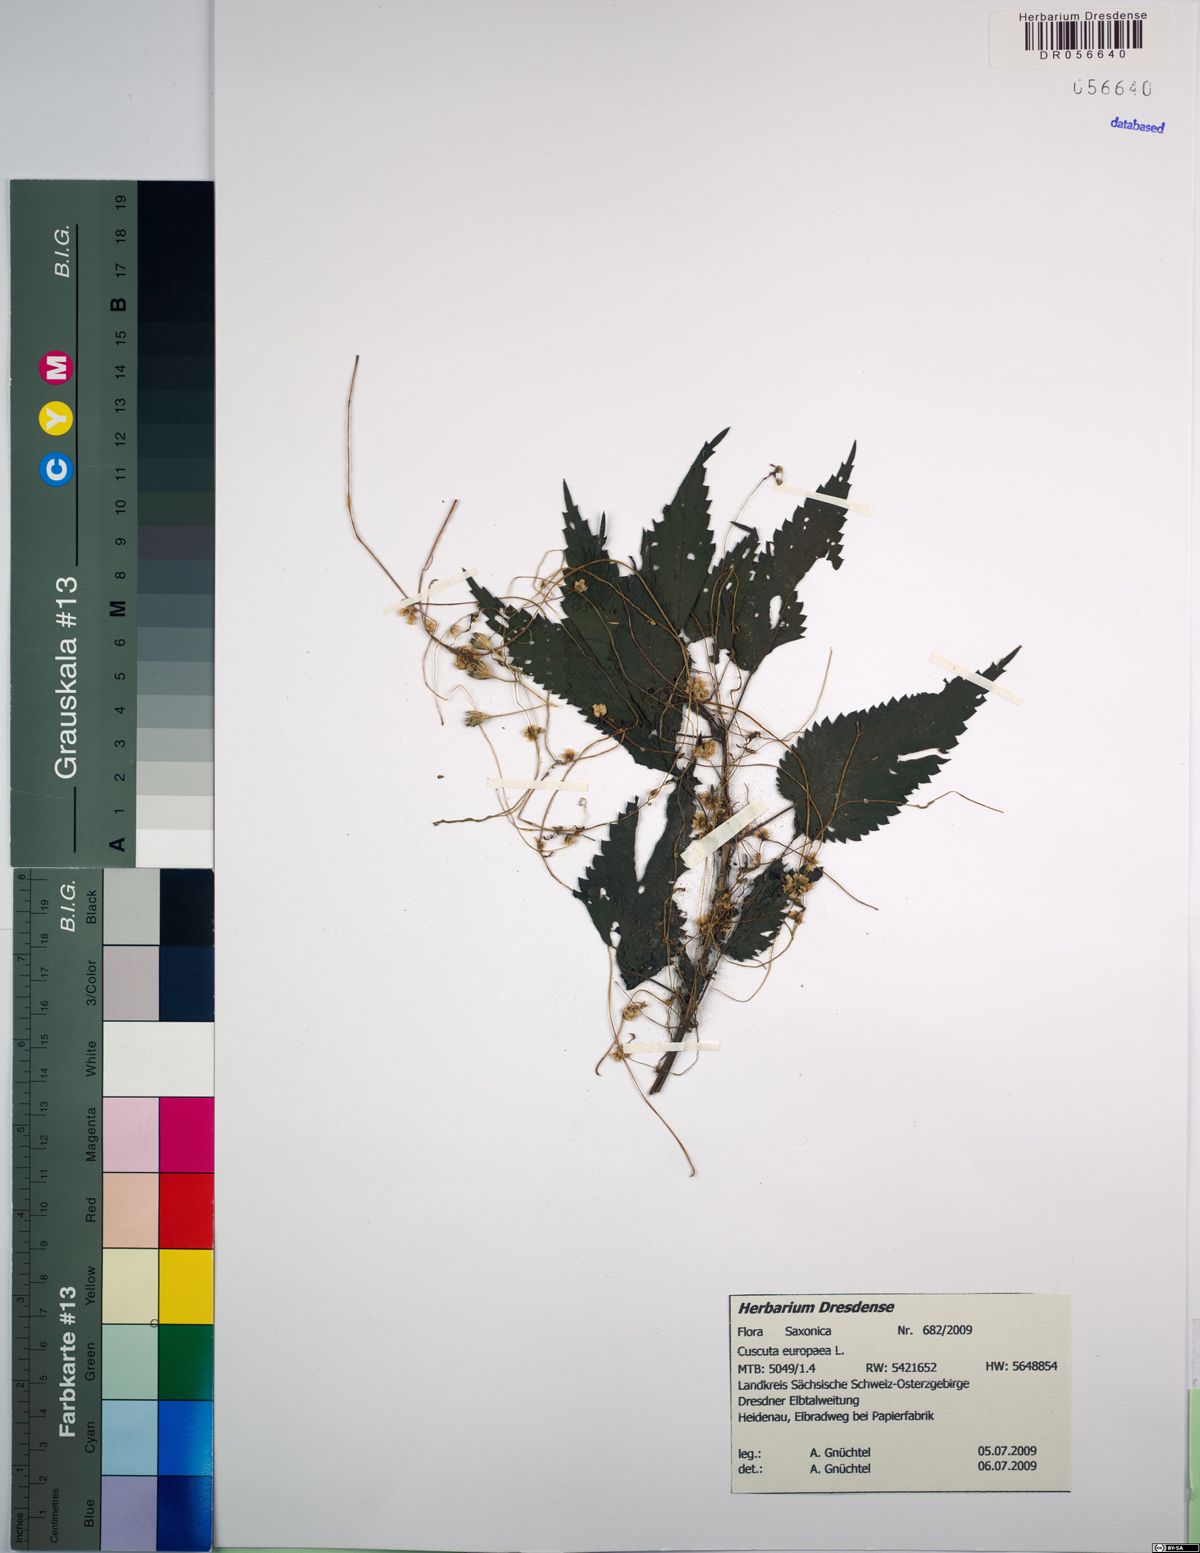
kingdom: Plantae
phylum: Tracheophyta
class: Magnoliopsida
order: Solanales
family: Convolvulaceae
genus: Cuscuta
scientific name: Cuscuta europaea
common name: Greater dodder
